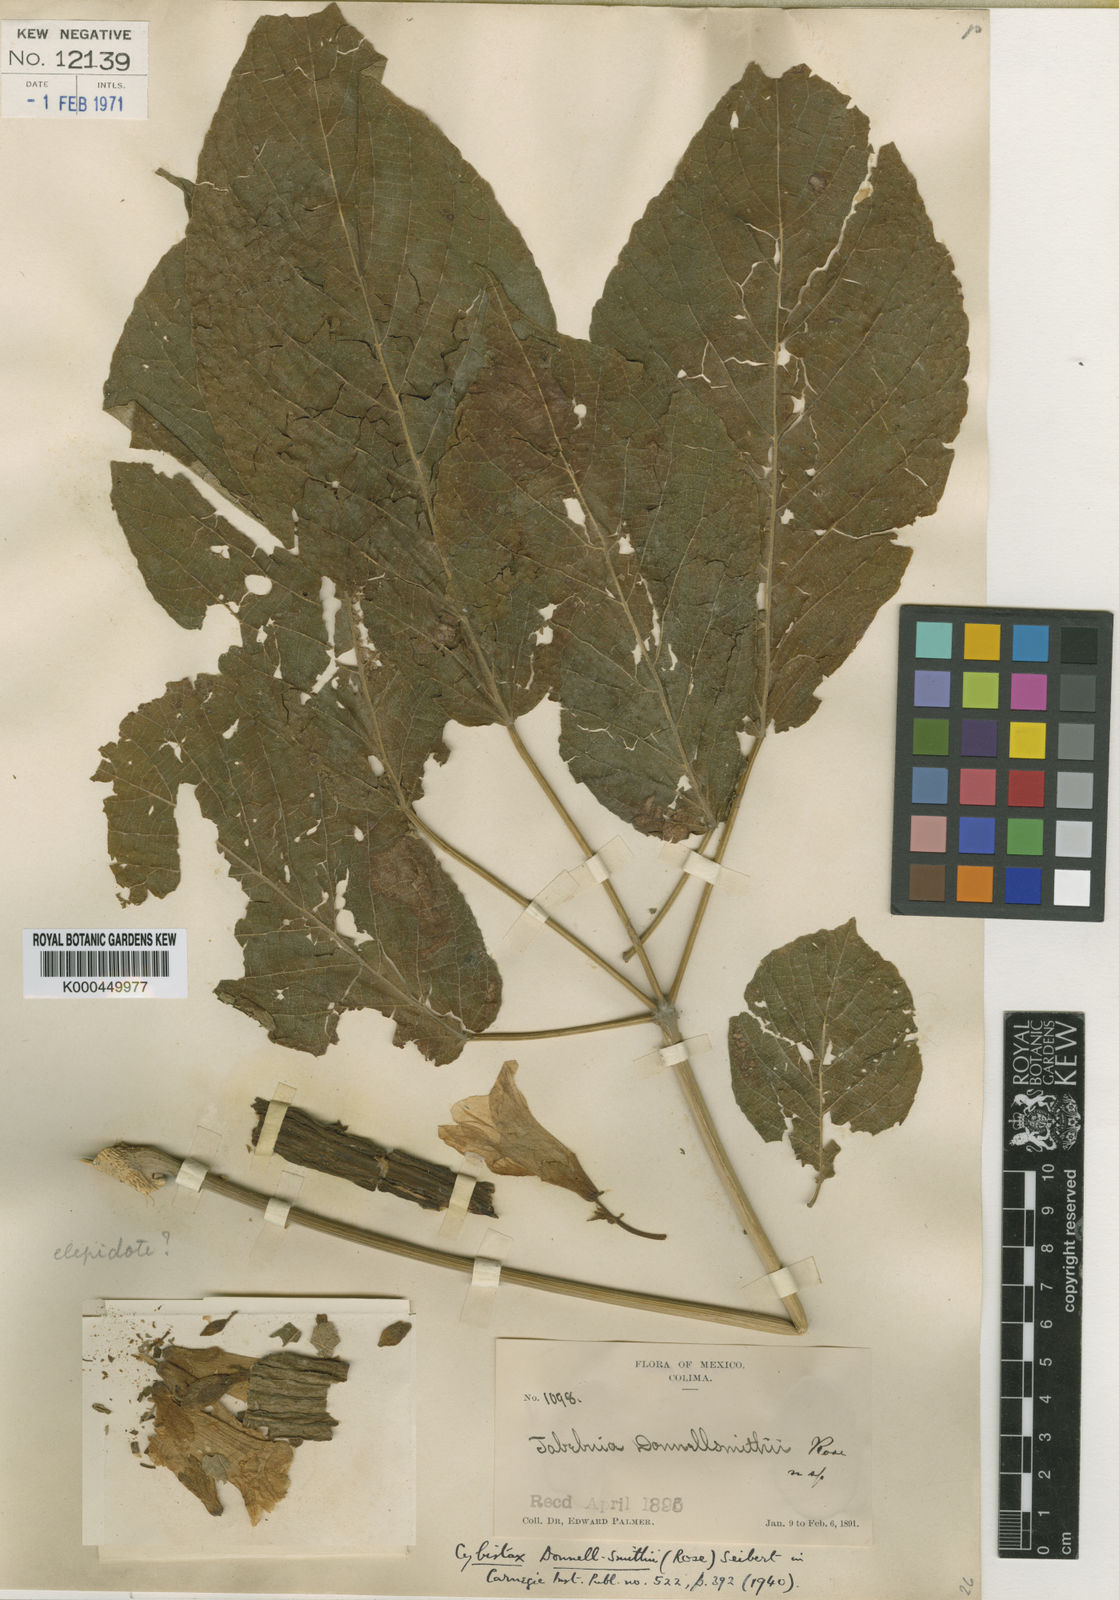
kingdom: Plantae
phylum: Tracheophyta
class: Magnoliopsida
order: Lamiales
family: Bignoniaceae
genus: Roseodendron
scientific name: Roseodendron donnell-smithii
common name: White-mahogany
